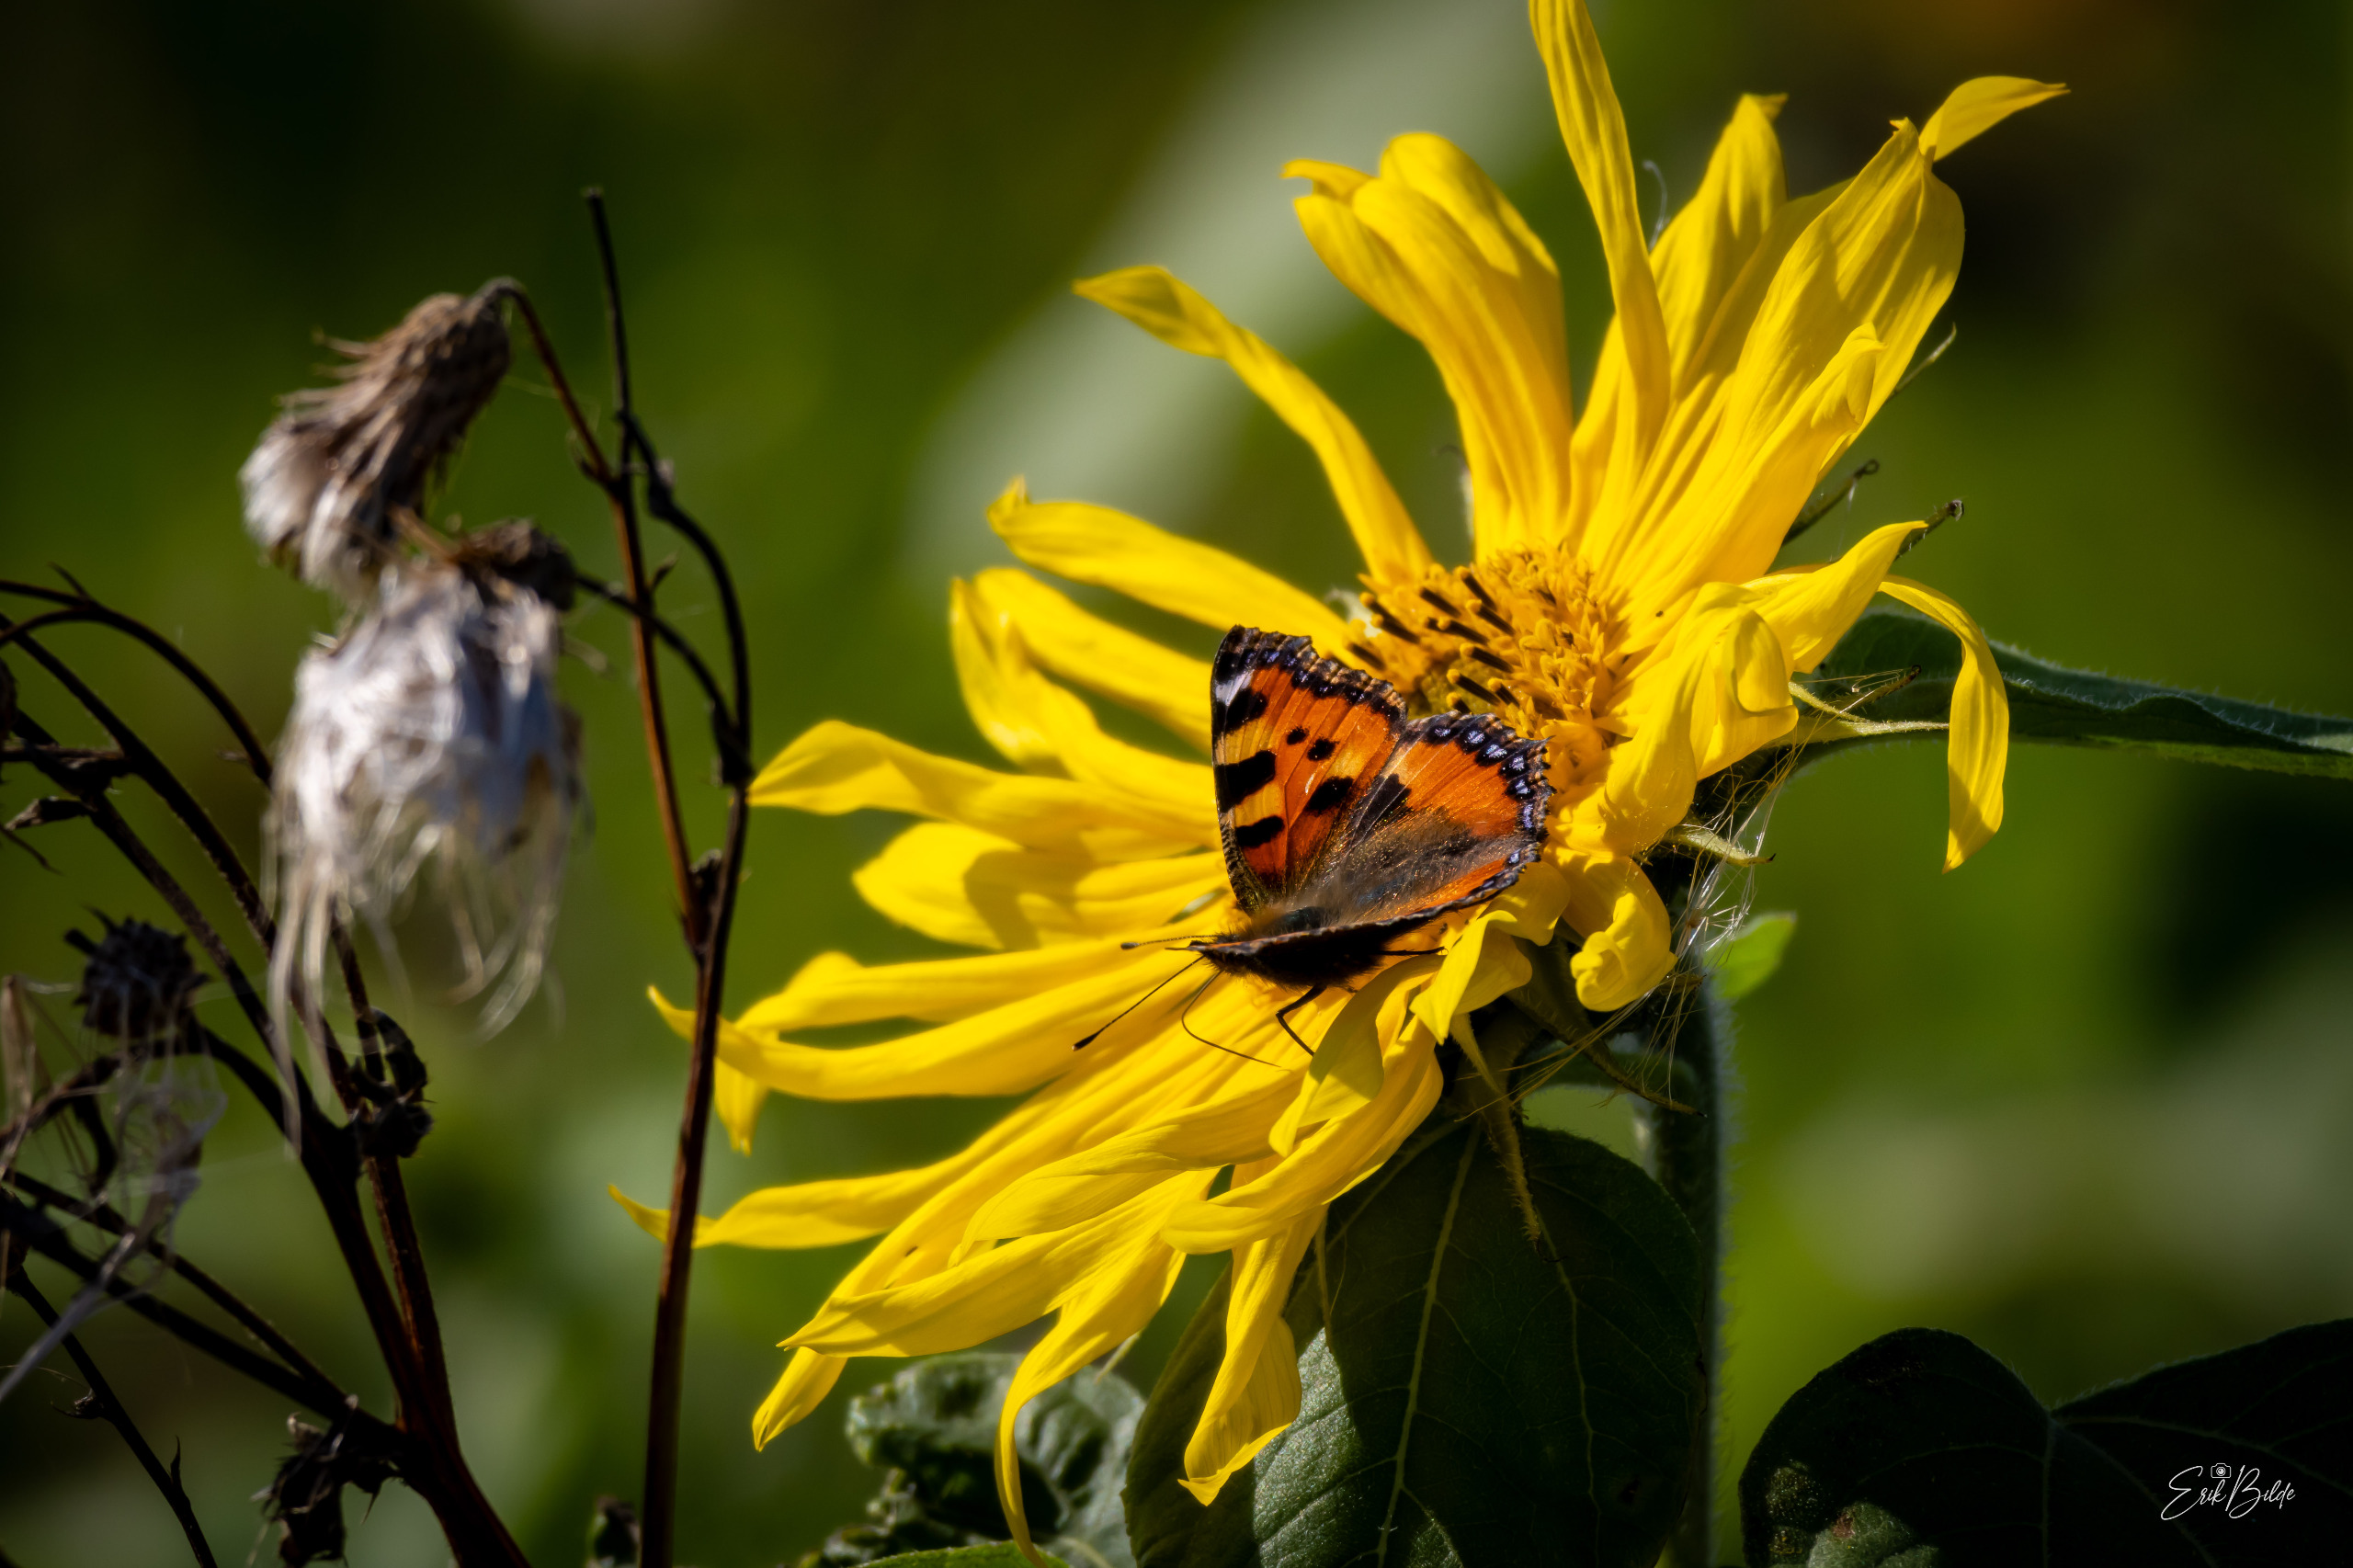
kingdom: Animalia
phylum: Arthropoda
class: Insecta
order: Lepidoptera
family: Nymphalidae
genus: Aglais
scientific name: Aglais urticae
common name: Nældens takvinge
